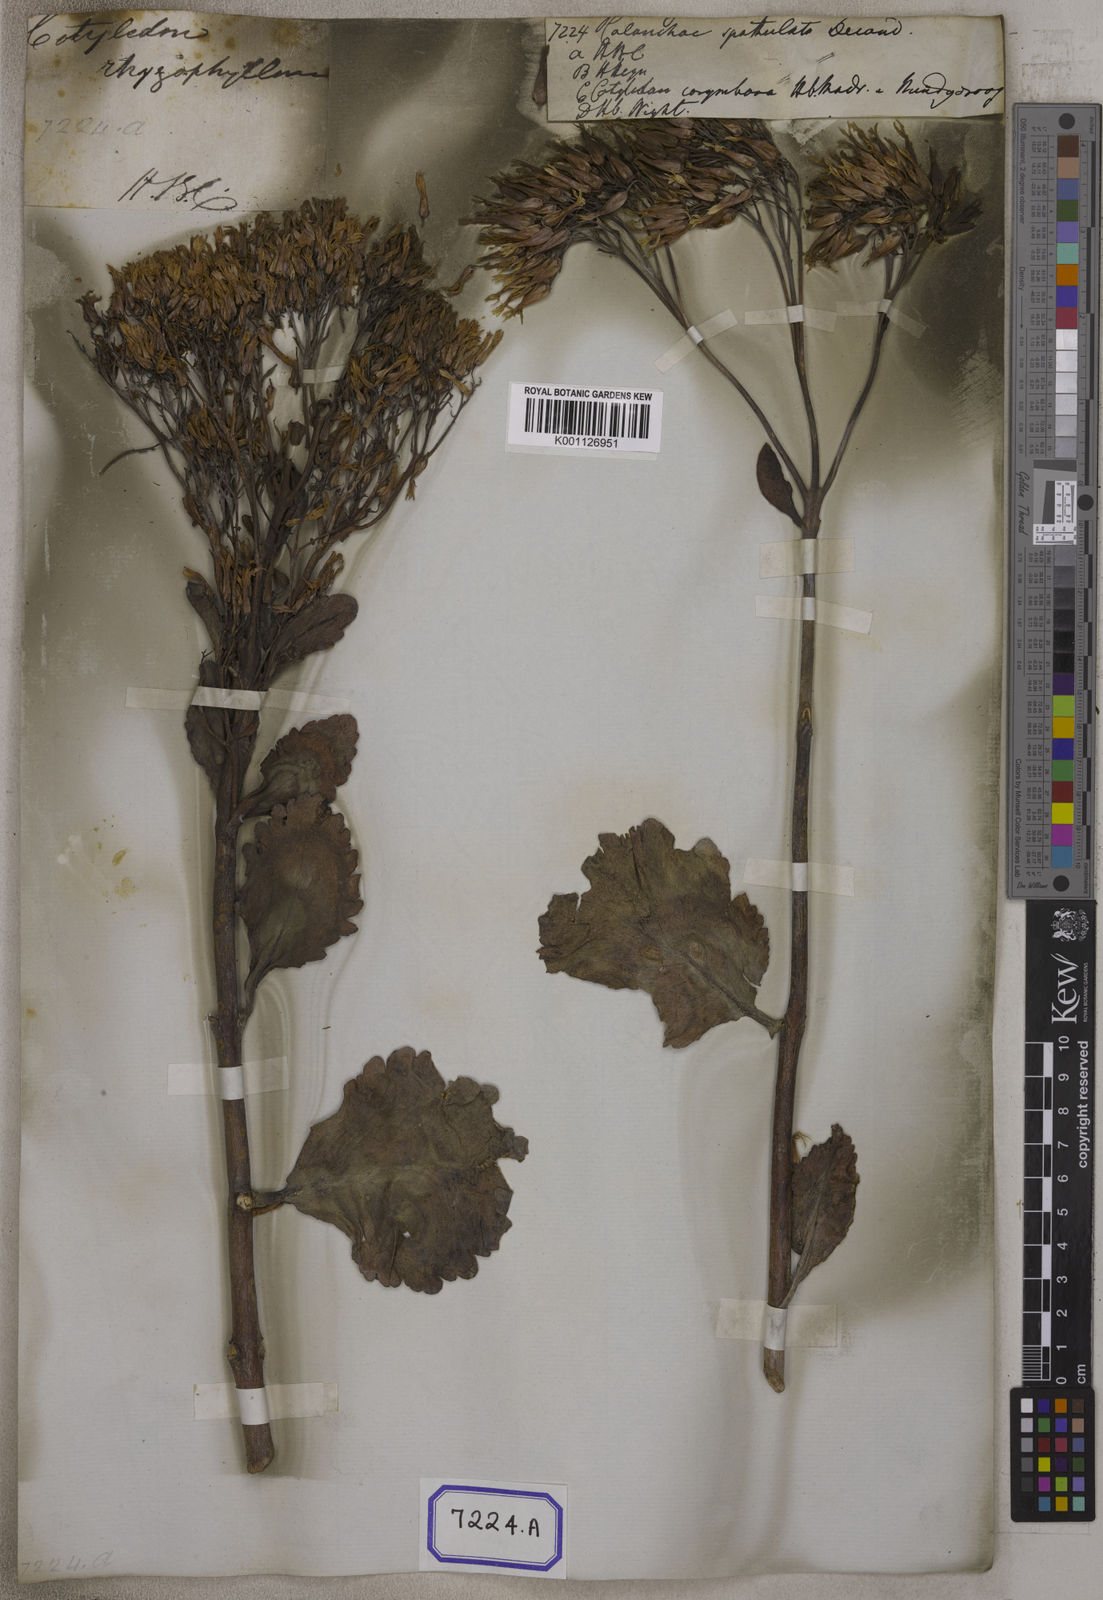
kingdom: Plantae
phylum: Tracheophyta
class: Magnoliopsida
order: Saxifragales
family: Crassulaceae
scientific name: Crassulaceae
